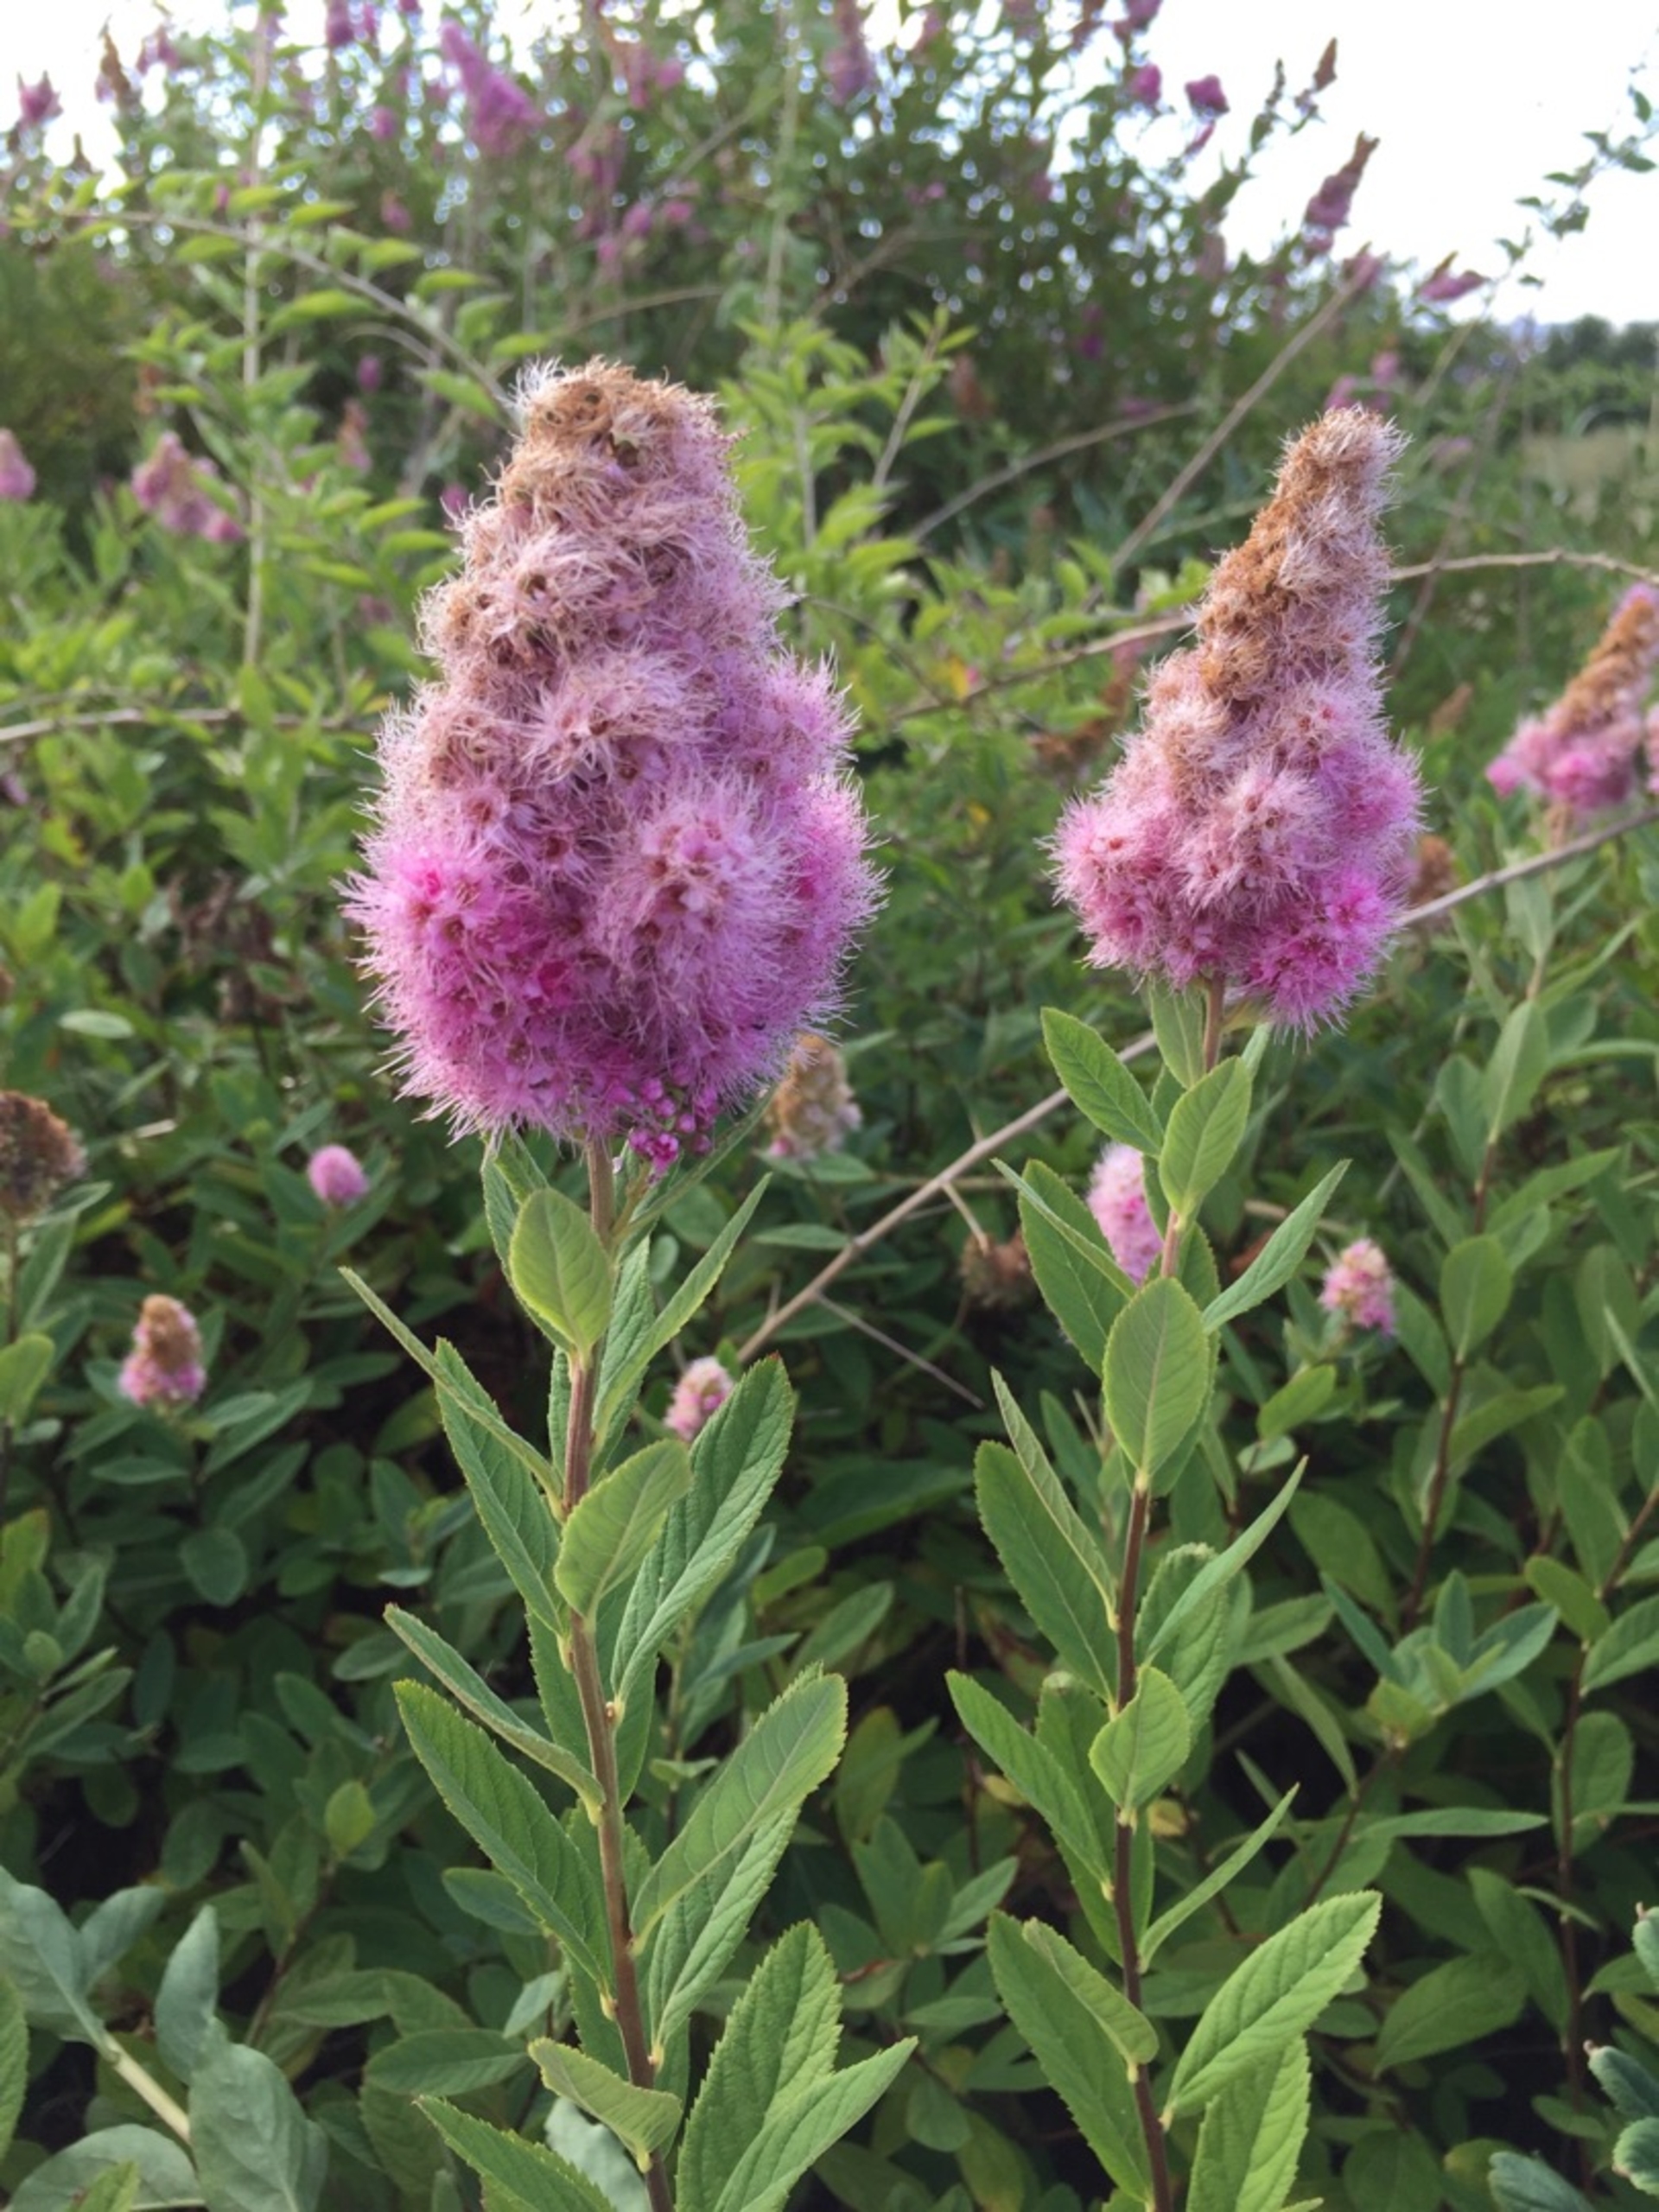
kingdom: Plantae
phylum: Tracheophyta
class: Magnoliopsida
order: Rosales
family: Rosaceae
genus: Spiraea
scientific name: Spiraea billardii
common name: Klase-spiræa
